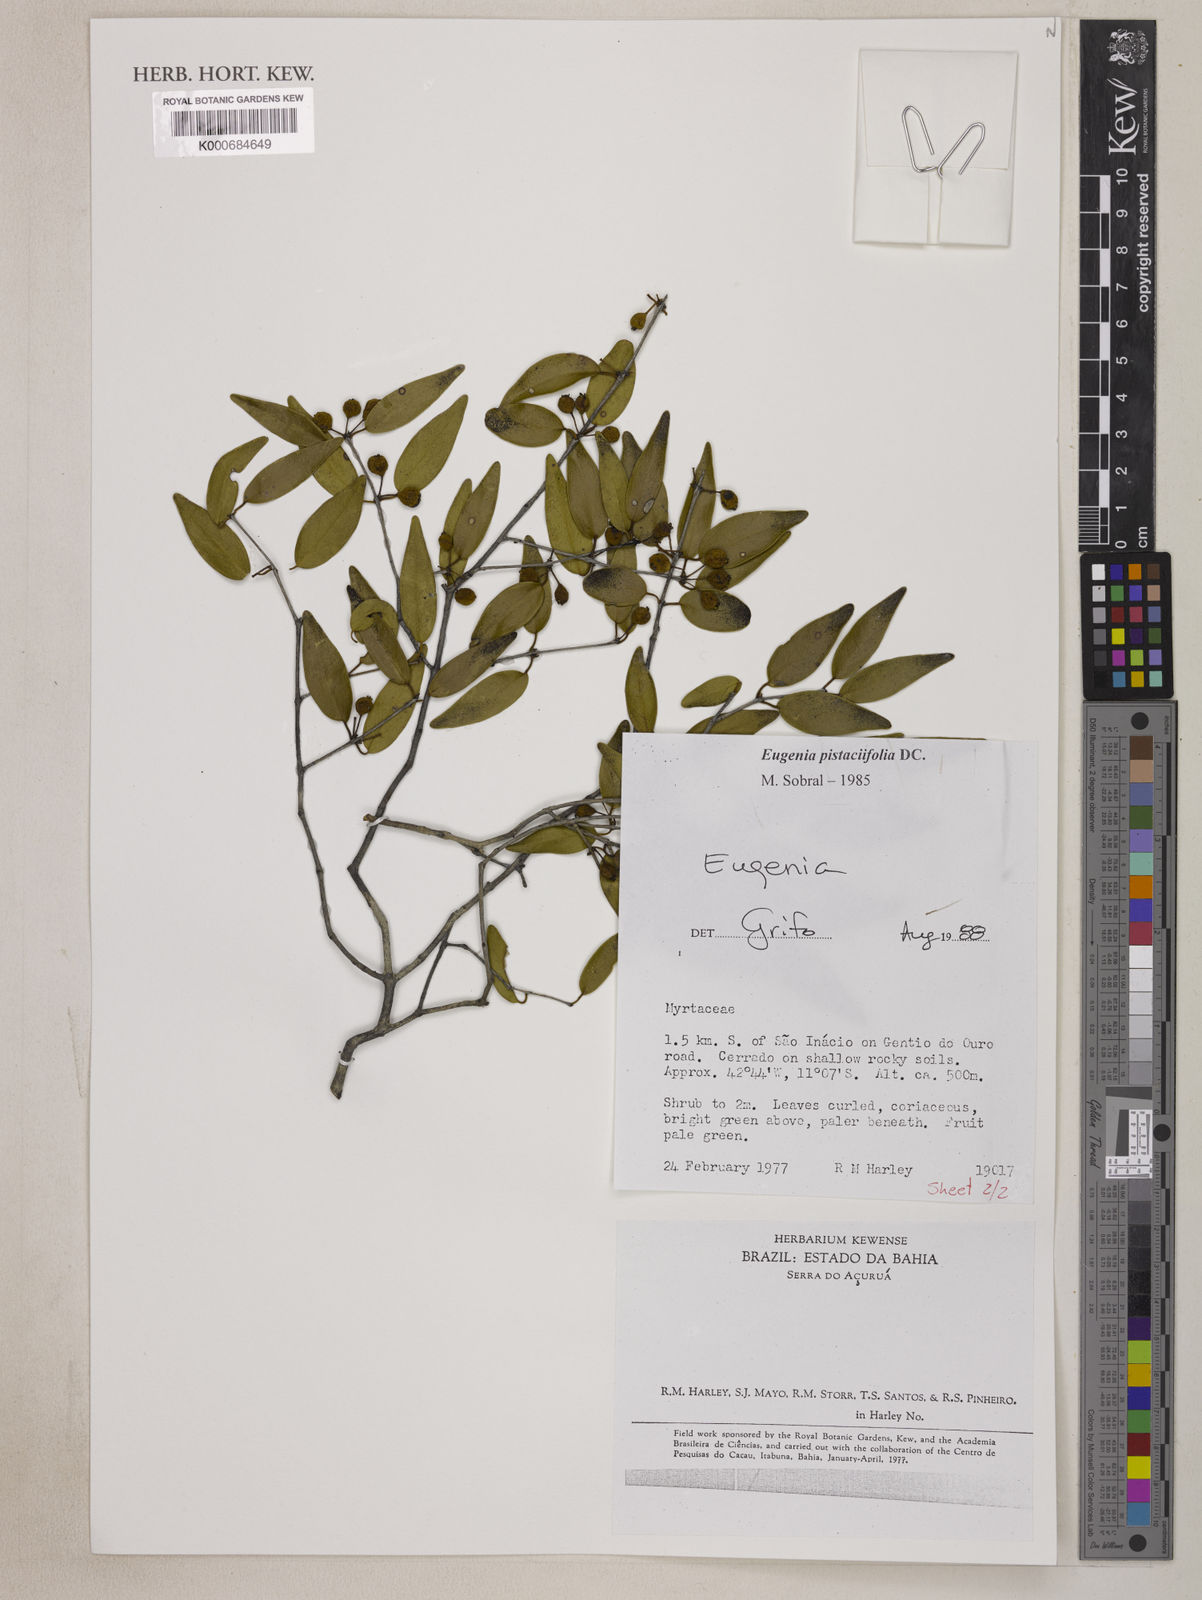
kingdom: Plantae
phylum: Tracheophyta
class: Magnoliopsida
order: Myrtales
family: Myrtaceae
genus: Eugenia
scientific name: Eugenia pistaciifolia
